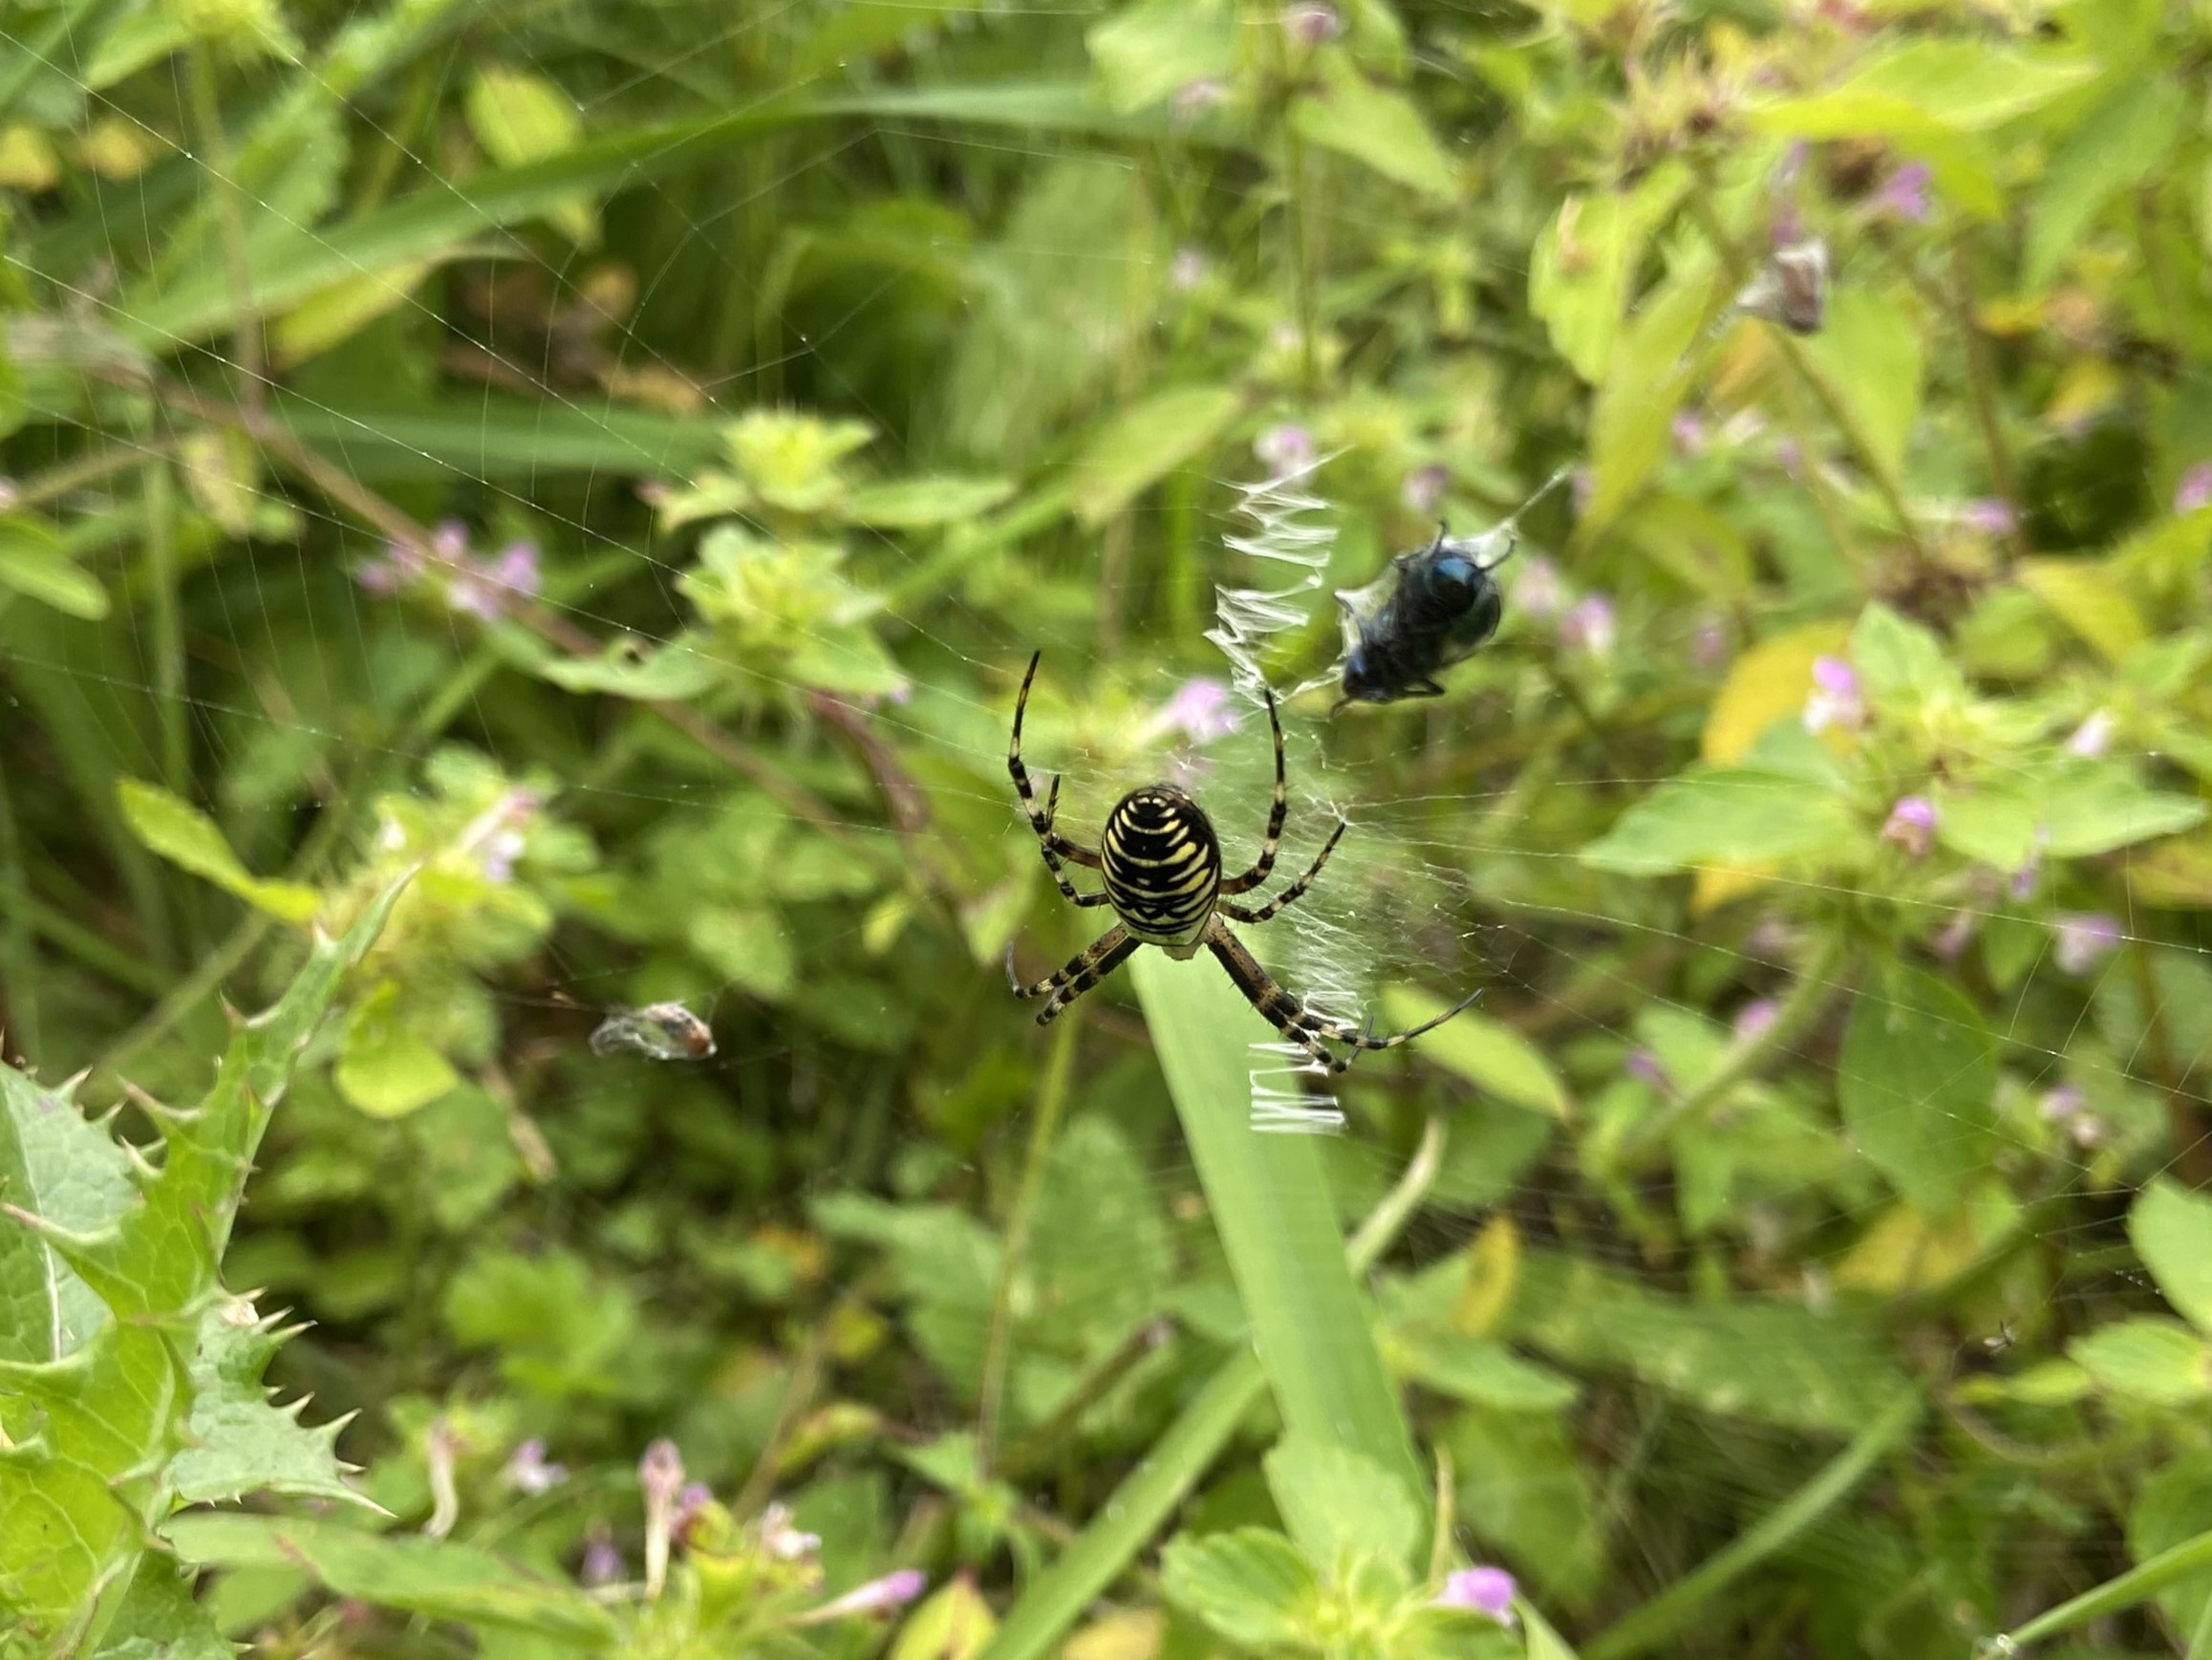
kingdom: Animalia
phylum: Arthropoda
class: Arachnida
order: Araneae
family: Araneidae
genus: Argiope
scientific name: Argiope bruennichi
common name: Hvepseedderkop
